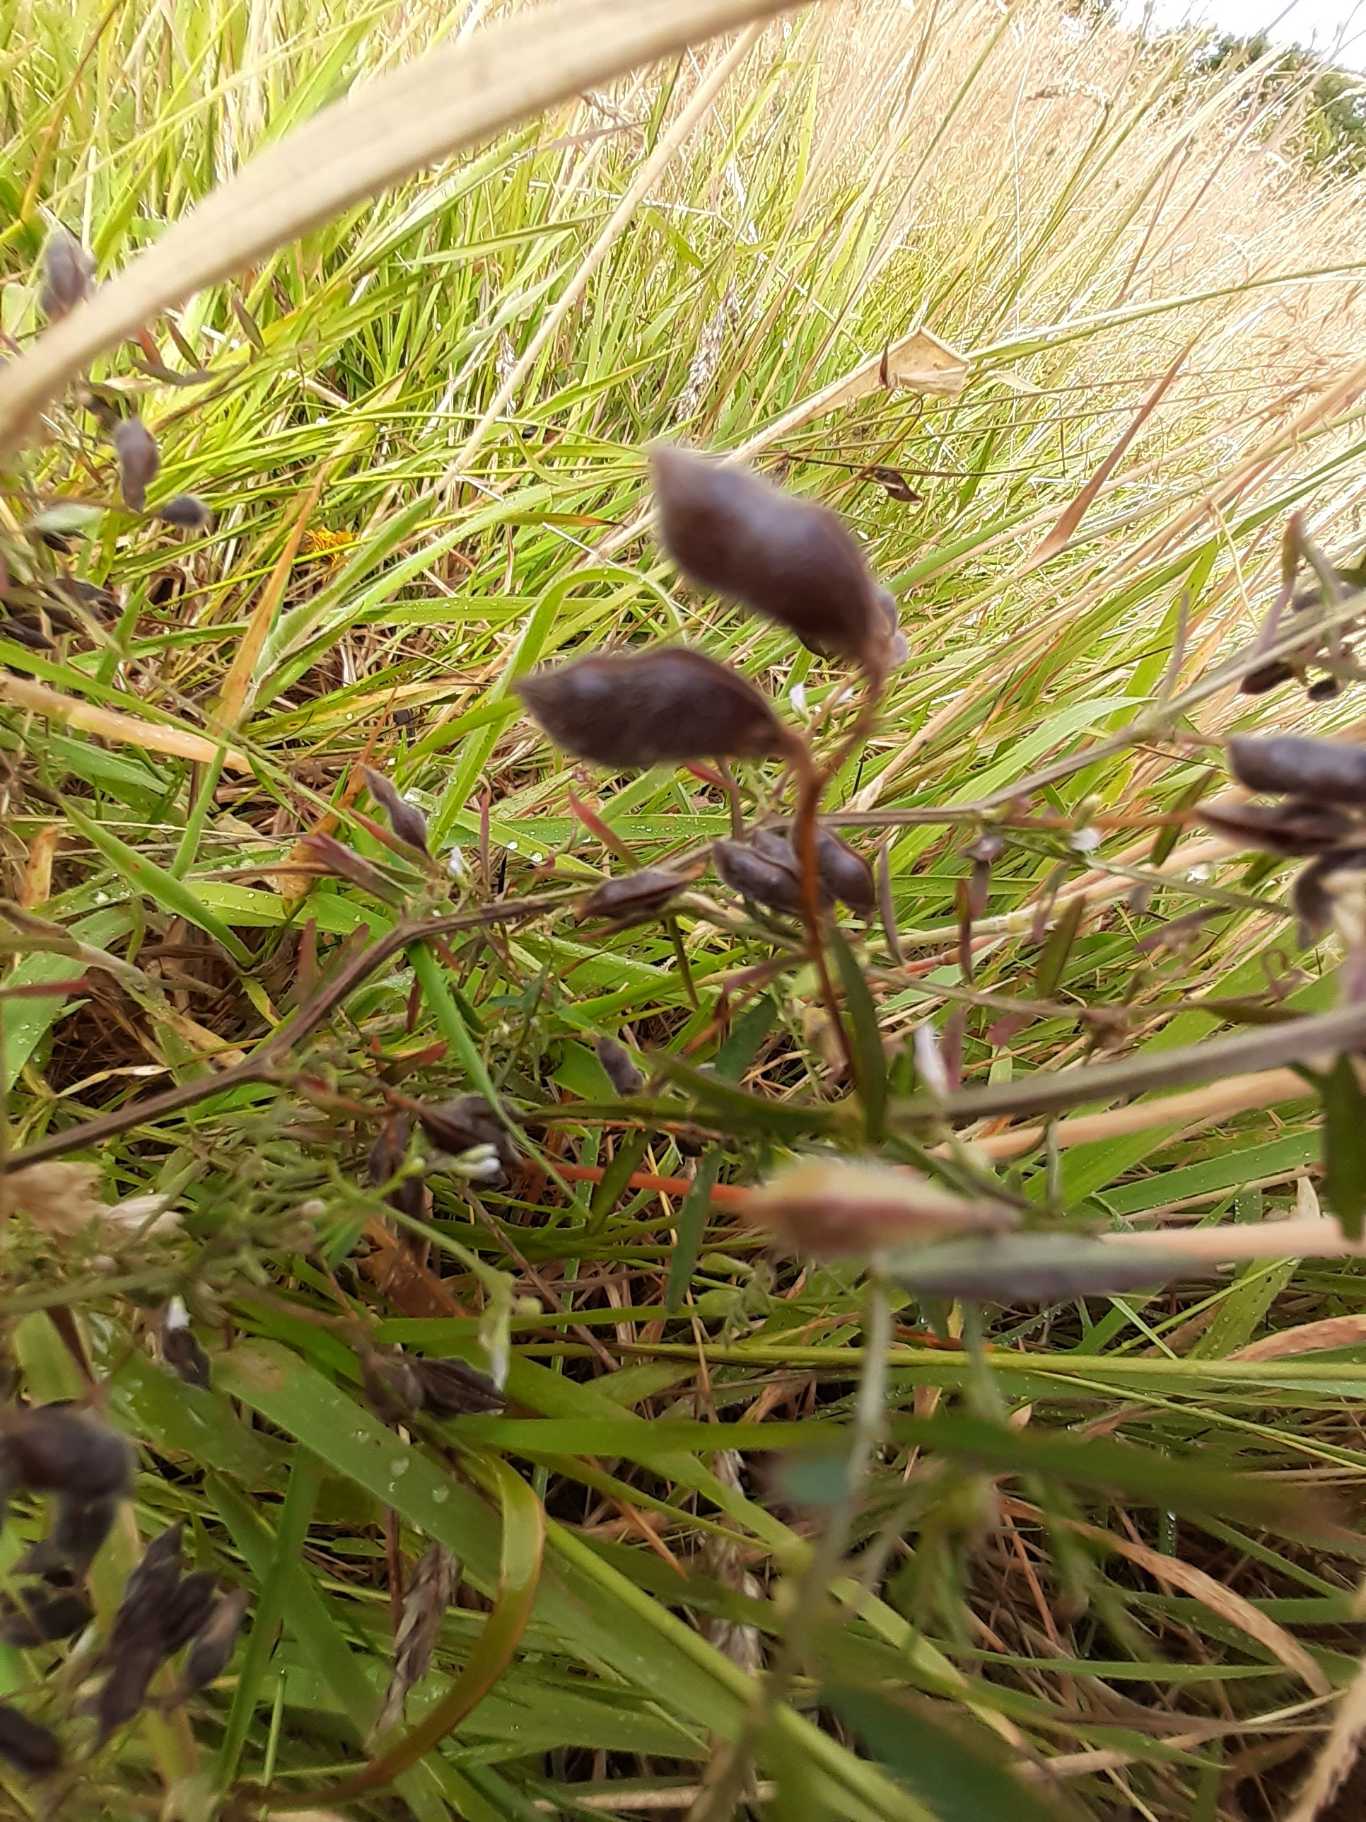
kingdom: Plantae
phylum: Tracheophyta
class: Magnoliopsida
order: Fabales
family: Fabaceae
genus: Vicia
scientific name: Vicia hirsuta
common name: Tofrøet vikke
